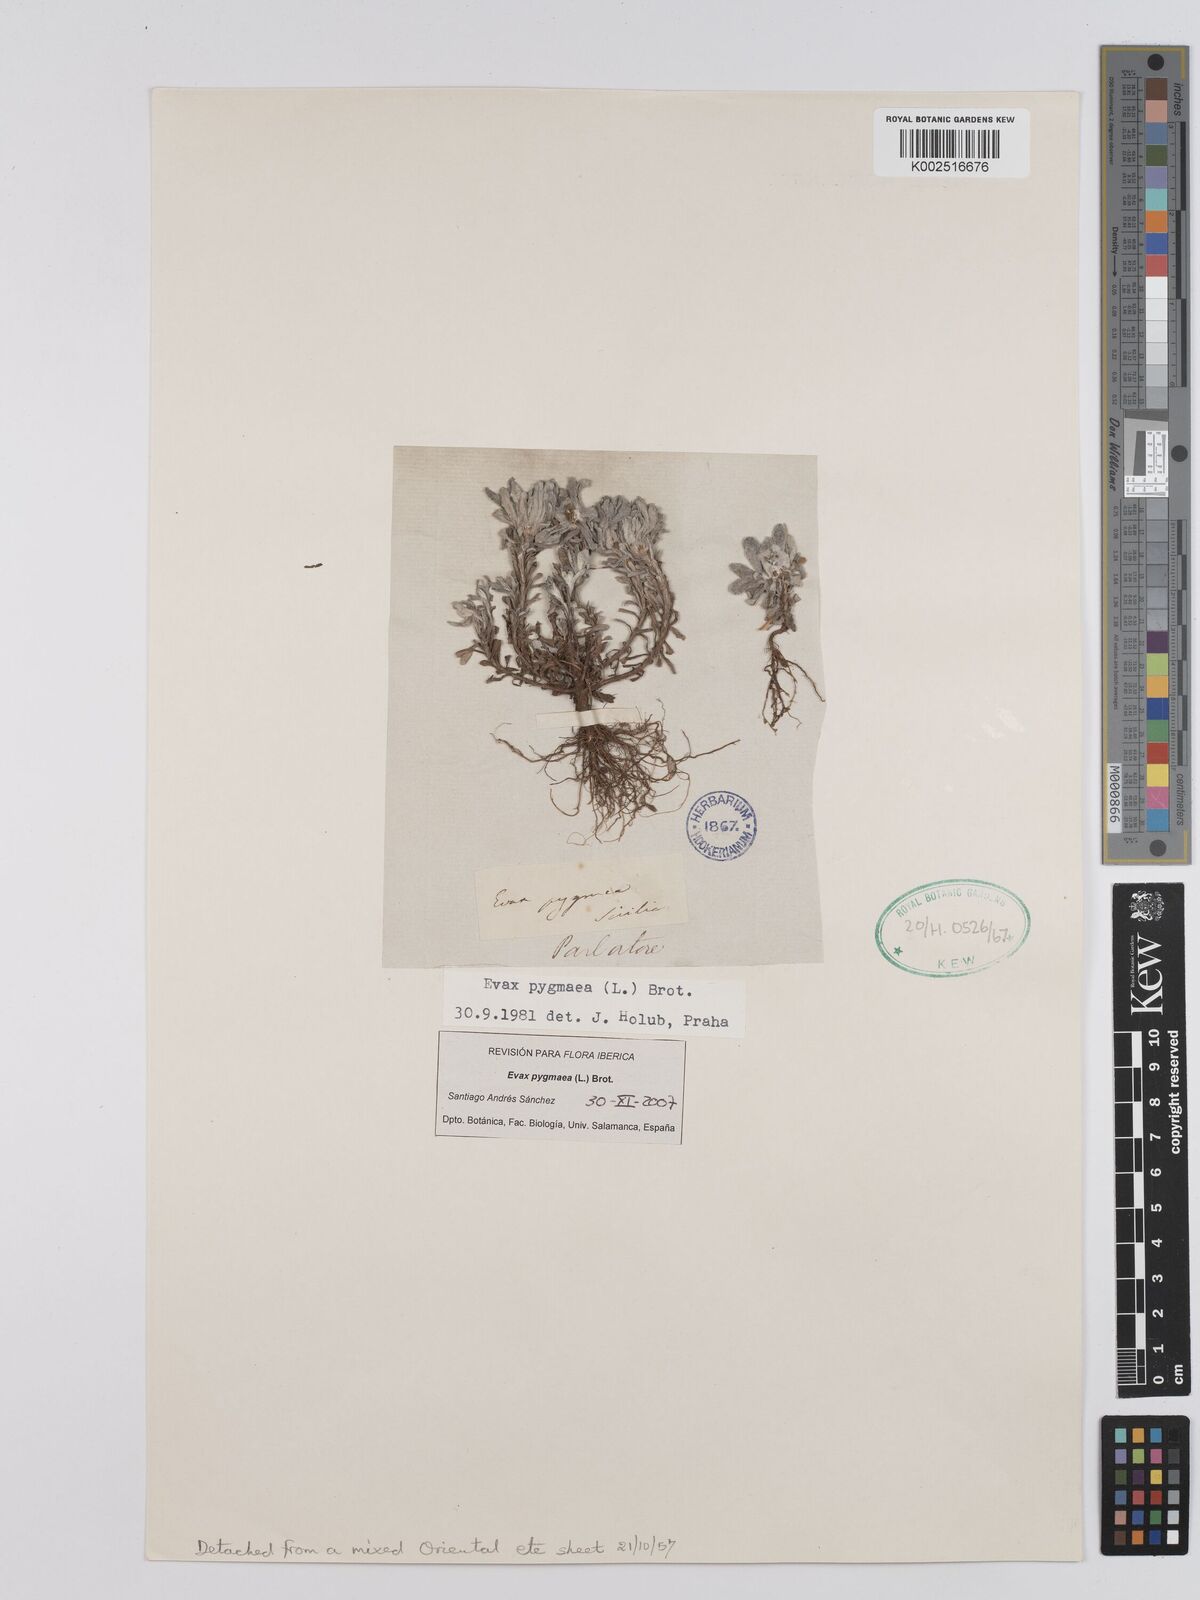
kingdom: Plantae
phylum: Tracheophyta
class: Magnoliopsida
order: Asterales
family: Asteraceae
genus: Filago
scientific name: Filago pygmaea
